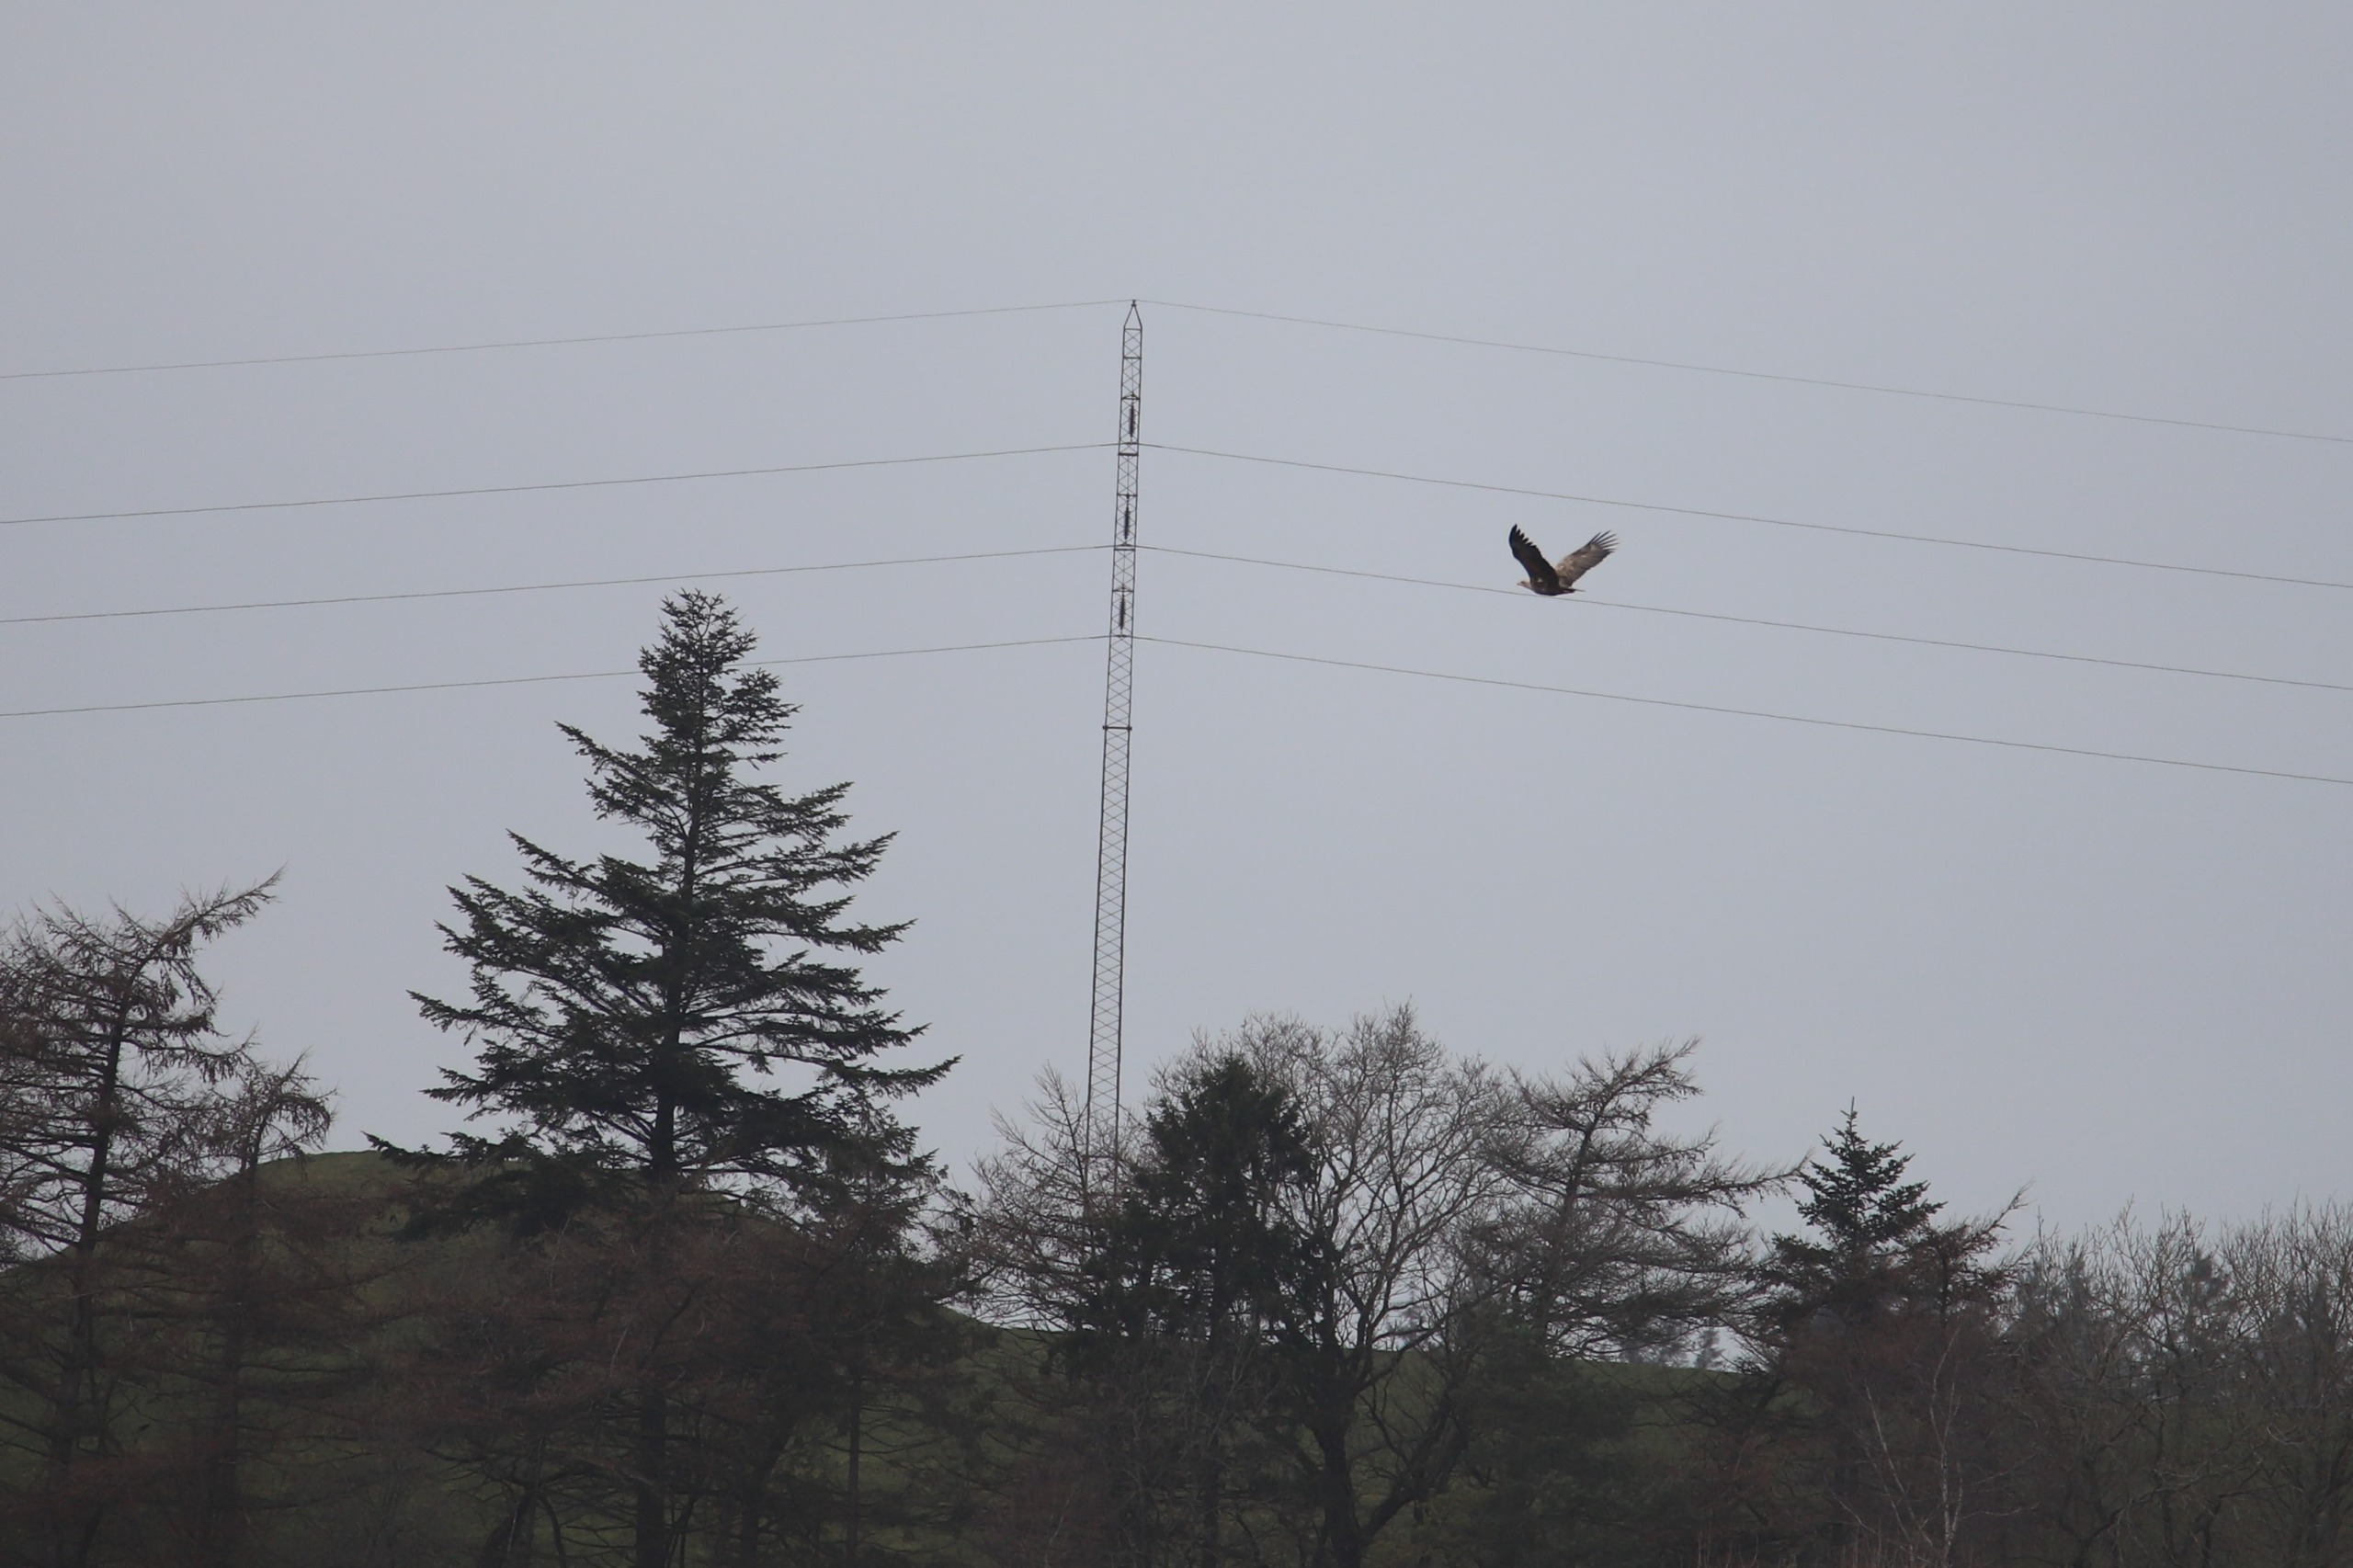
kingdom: Animalia
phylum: Chordata
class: Aves
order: Accipitriformes
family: Accipitridae
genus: Haliaeetus
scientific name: Haliaeetus albicilla
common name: Havørn
